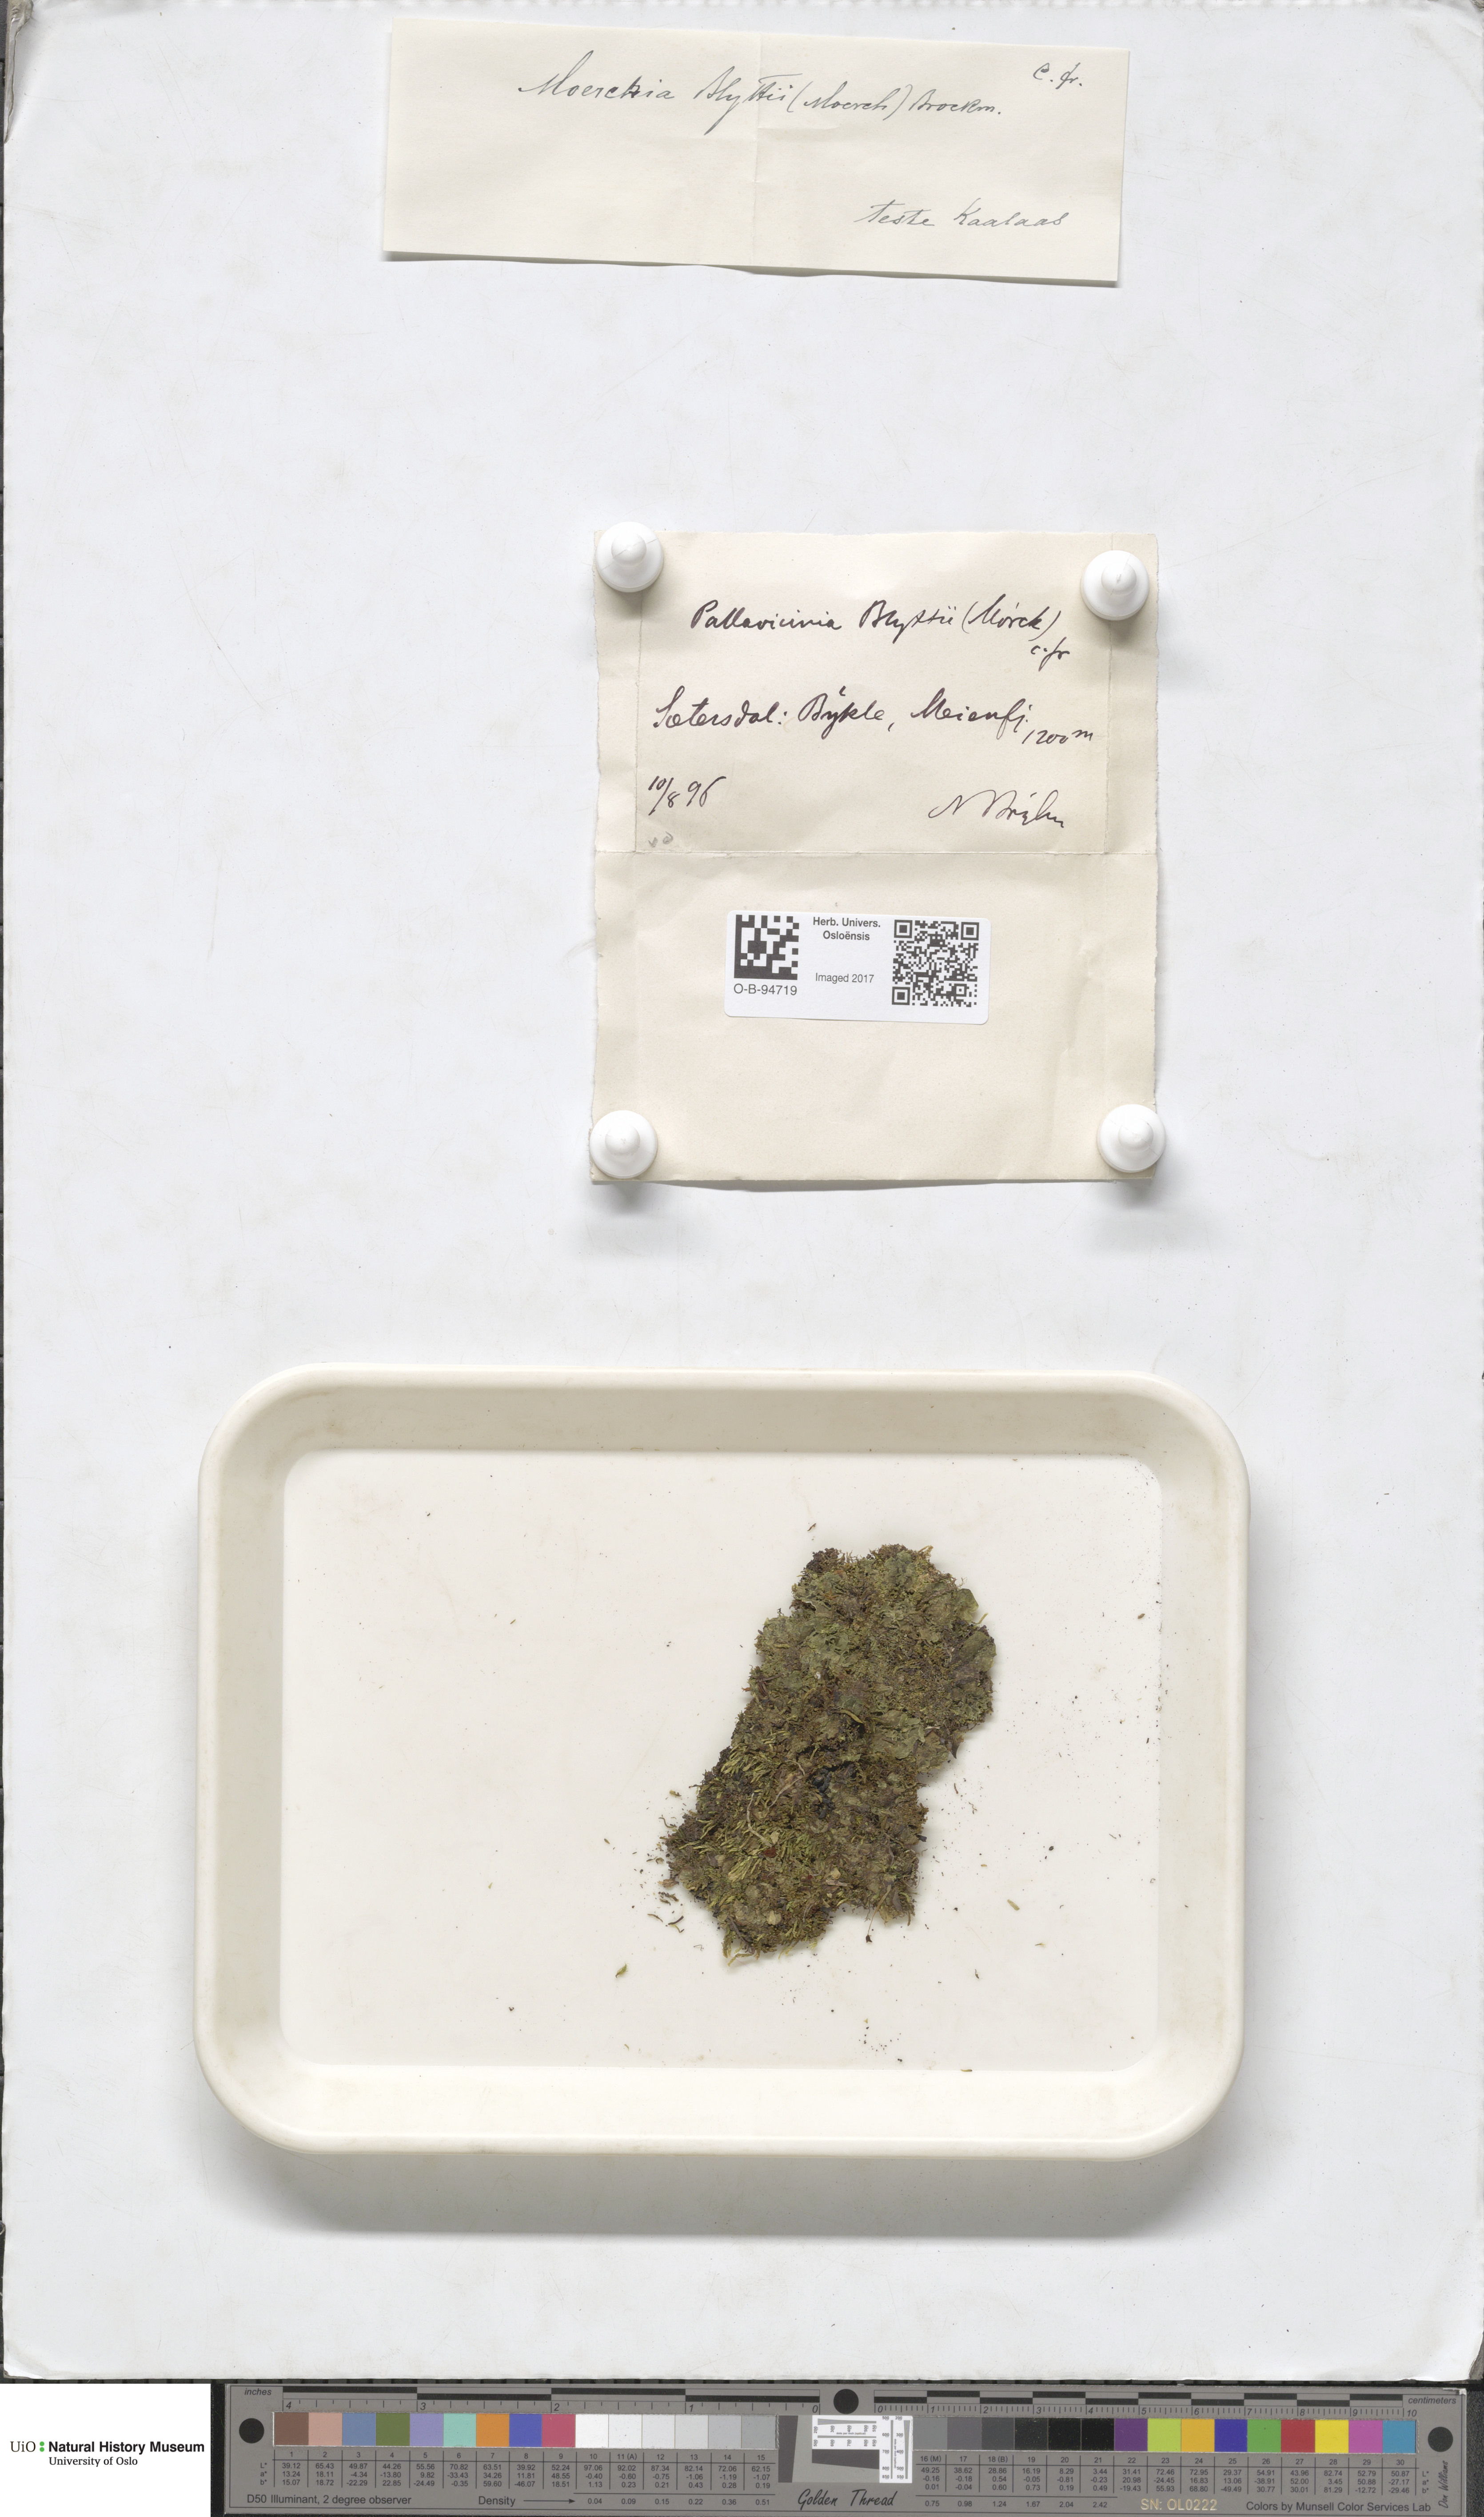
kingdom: Plantae
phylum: Marchantiophyta
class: Jungermanniopsida
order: Pallaviciniales
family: Pseudomoerckiaceae
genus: Pseudomoerckia
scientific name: Pseudomoerckia blyttii
